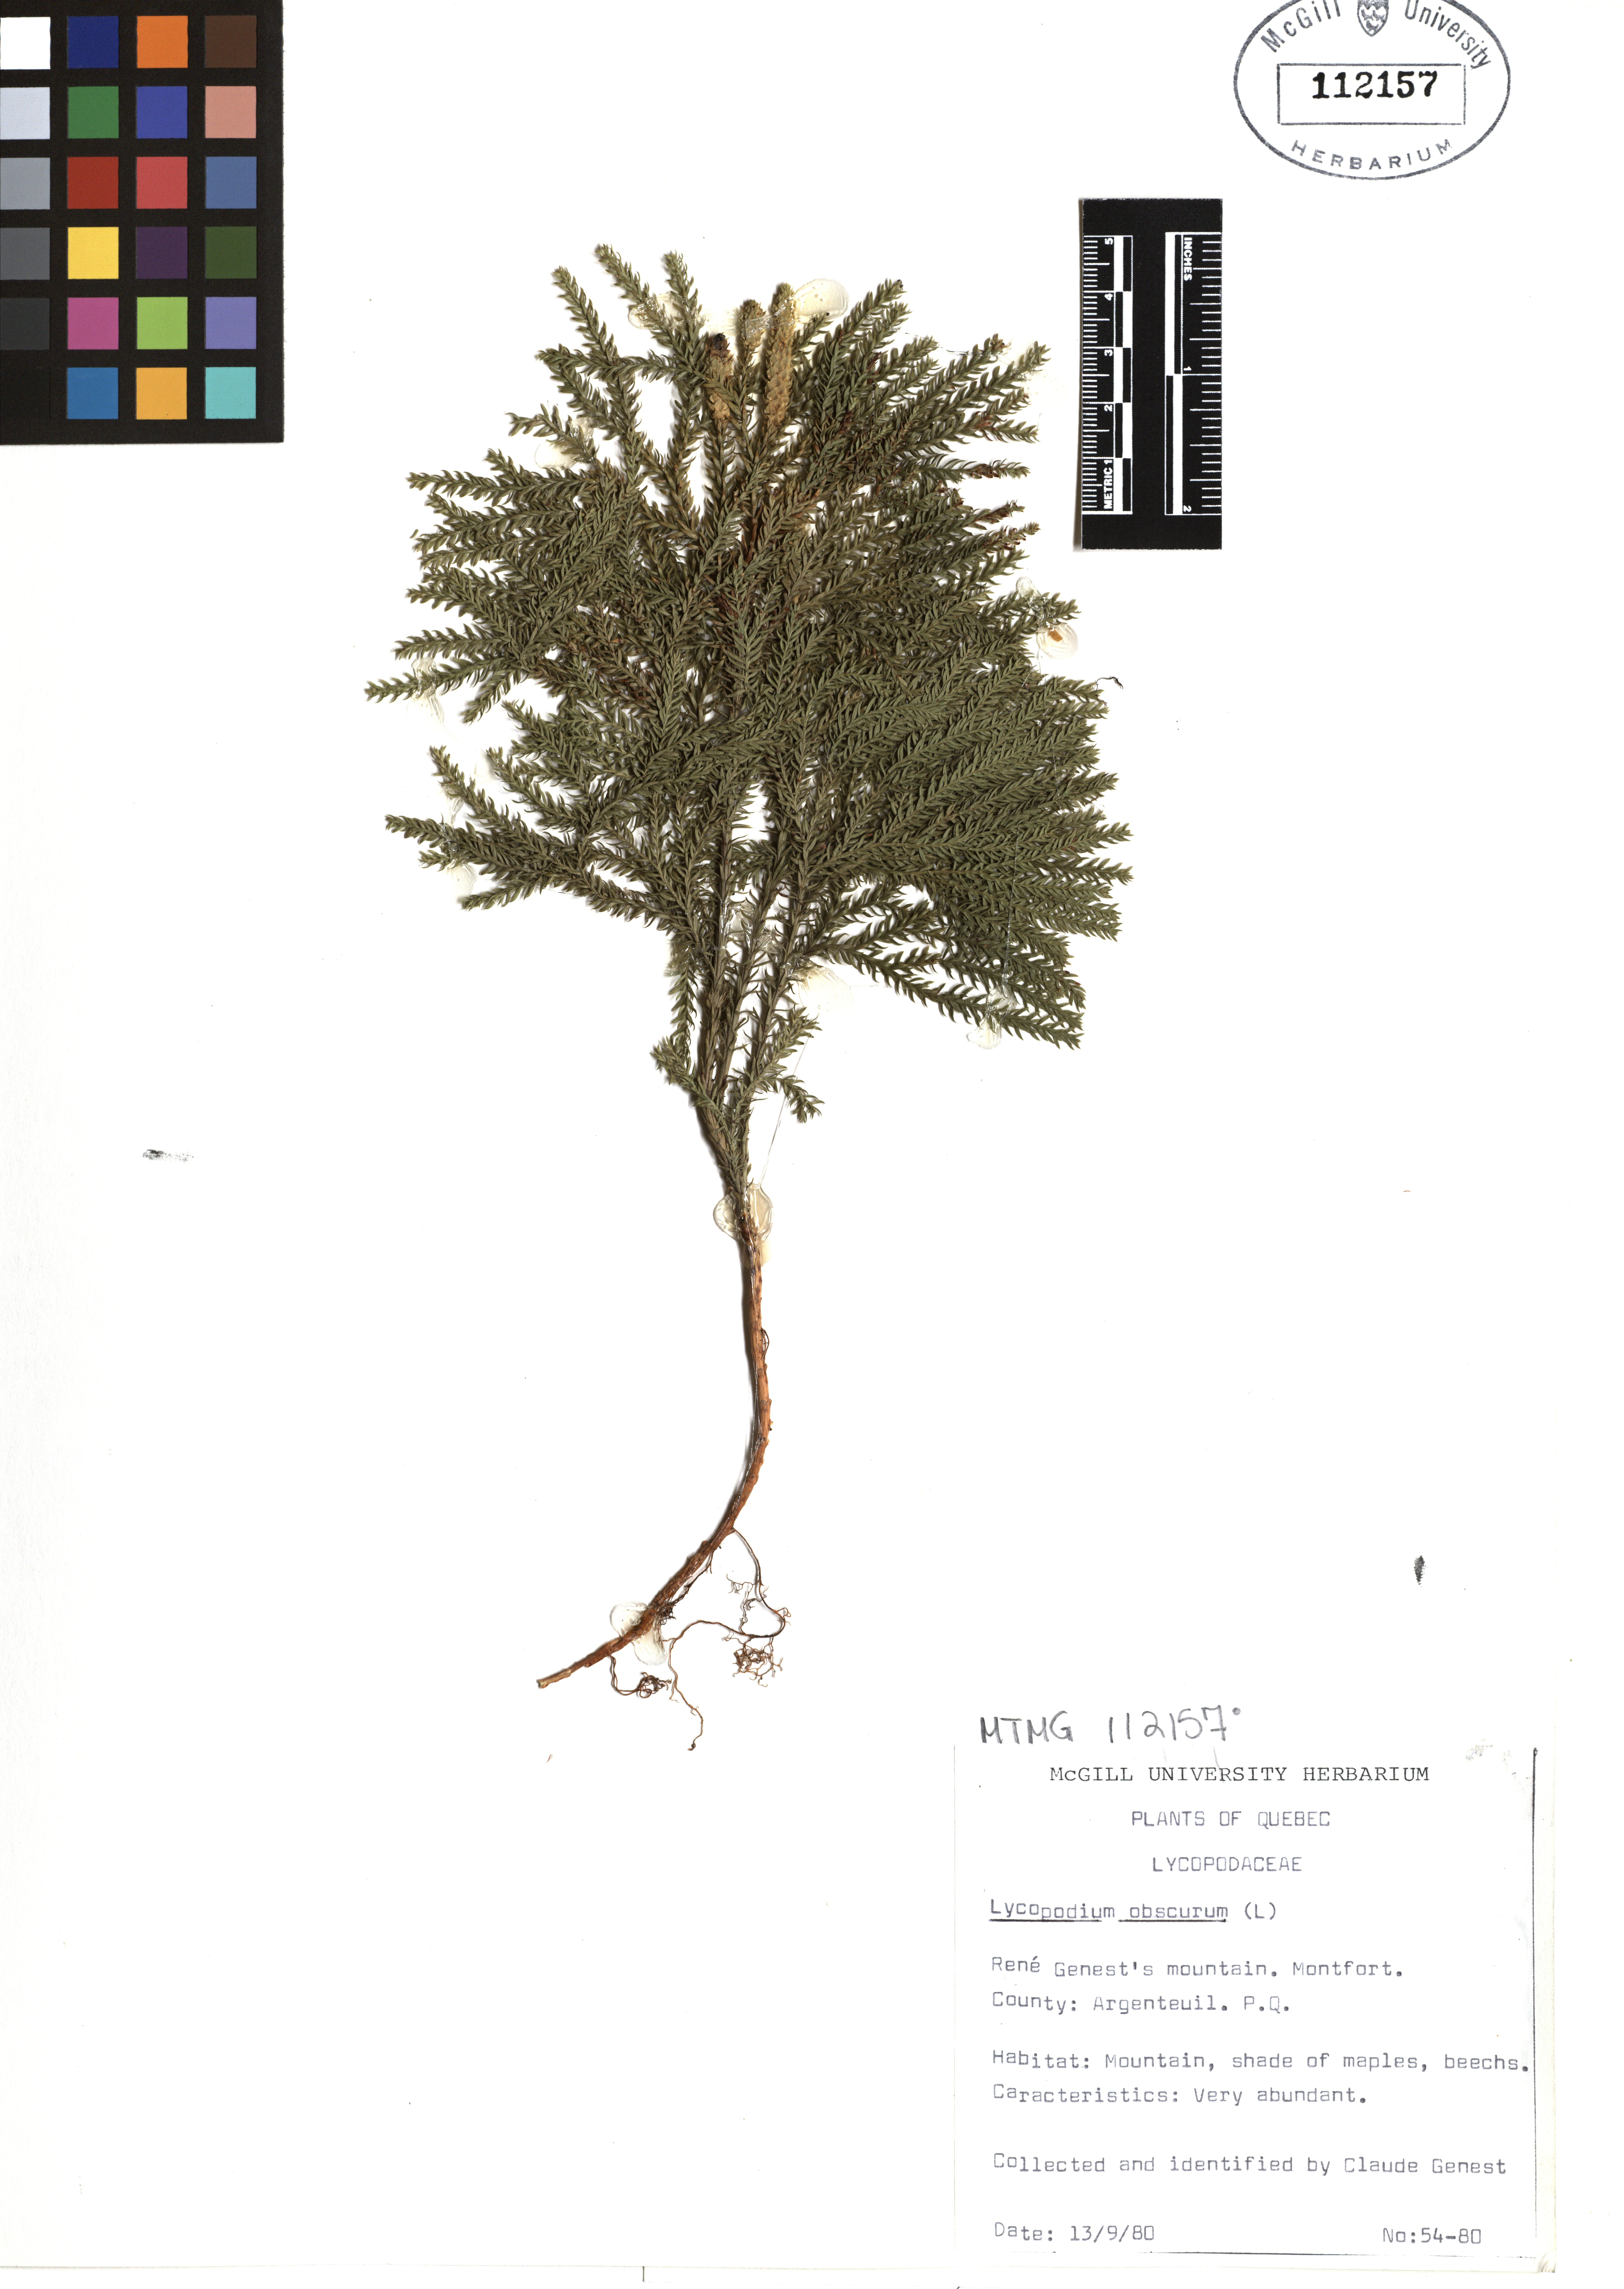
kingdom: Plantae
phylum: Tracheophyta
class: Lycopodiopsida
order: Lycopodiales
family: Lycopodiaceae
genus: Dendrolycopodium
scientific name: Dendrolycopodium obscurum
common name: Common ground-pine
